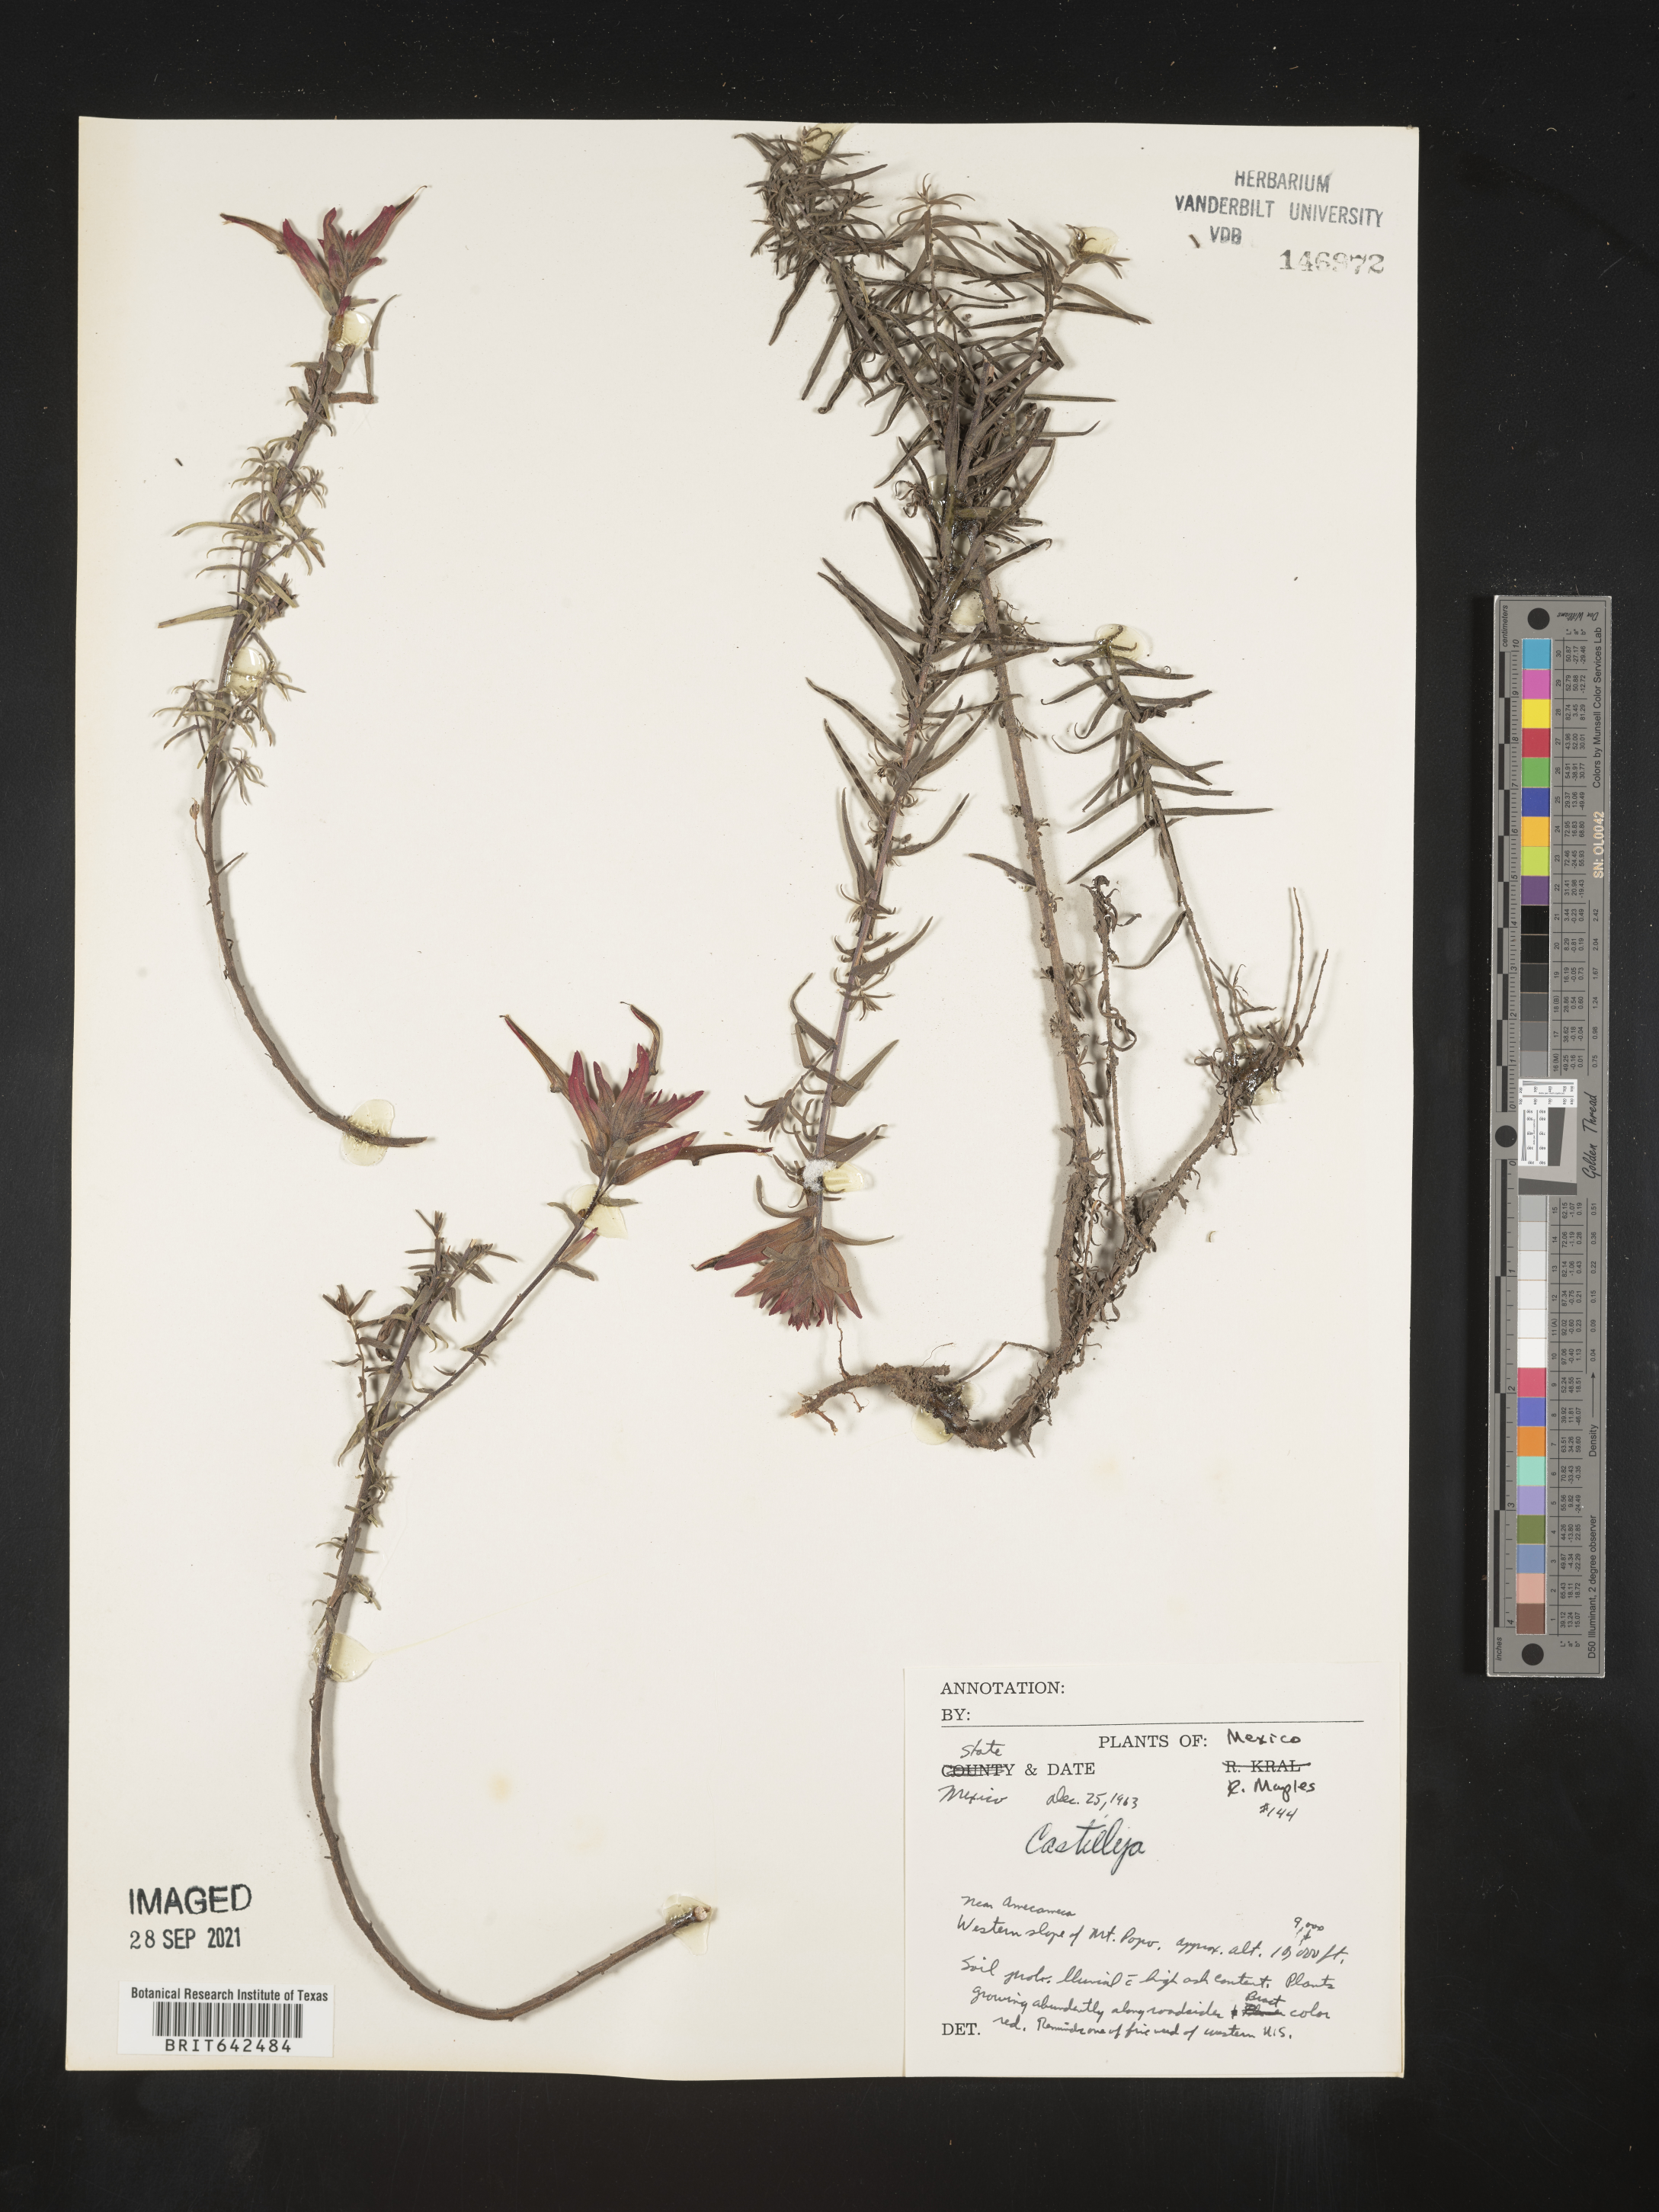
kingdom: Plantae
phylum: Tracheophyta
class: Magnoliopsida
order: Lamiales
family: Orobanchaceae
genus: Castilleja
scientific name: Castilleja
